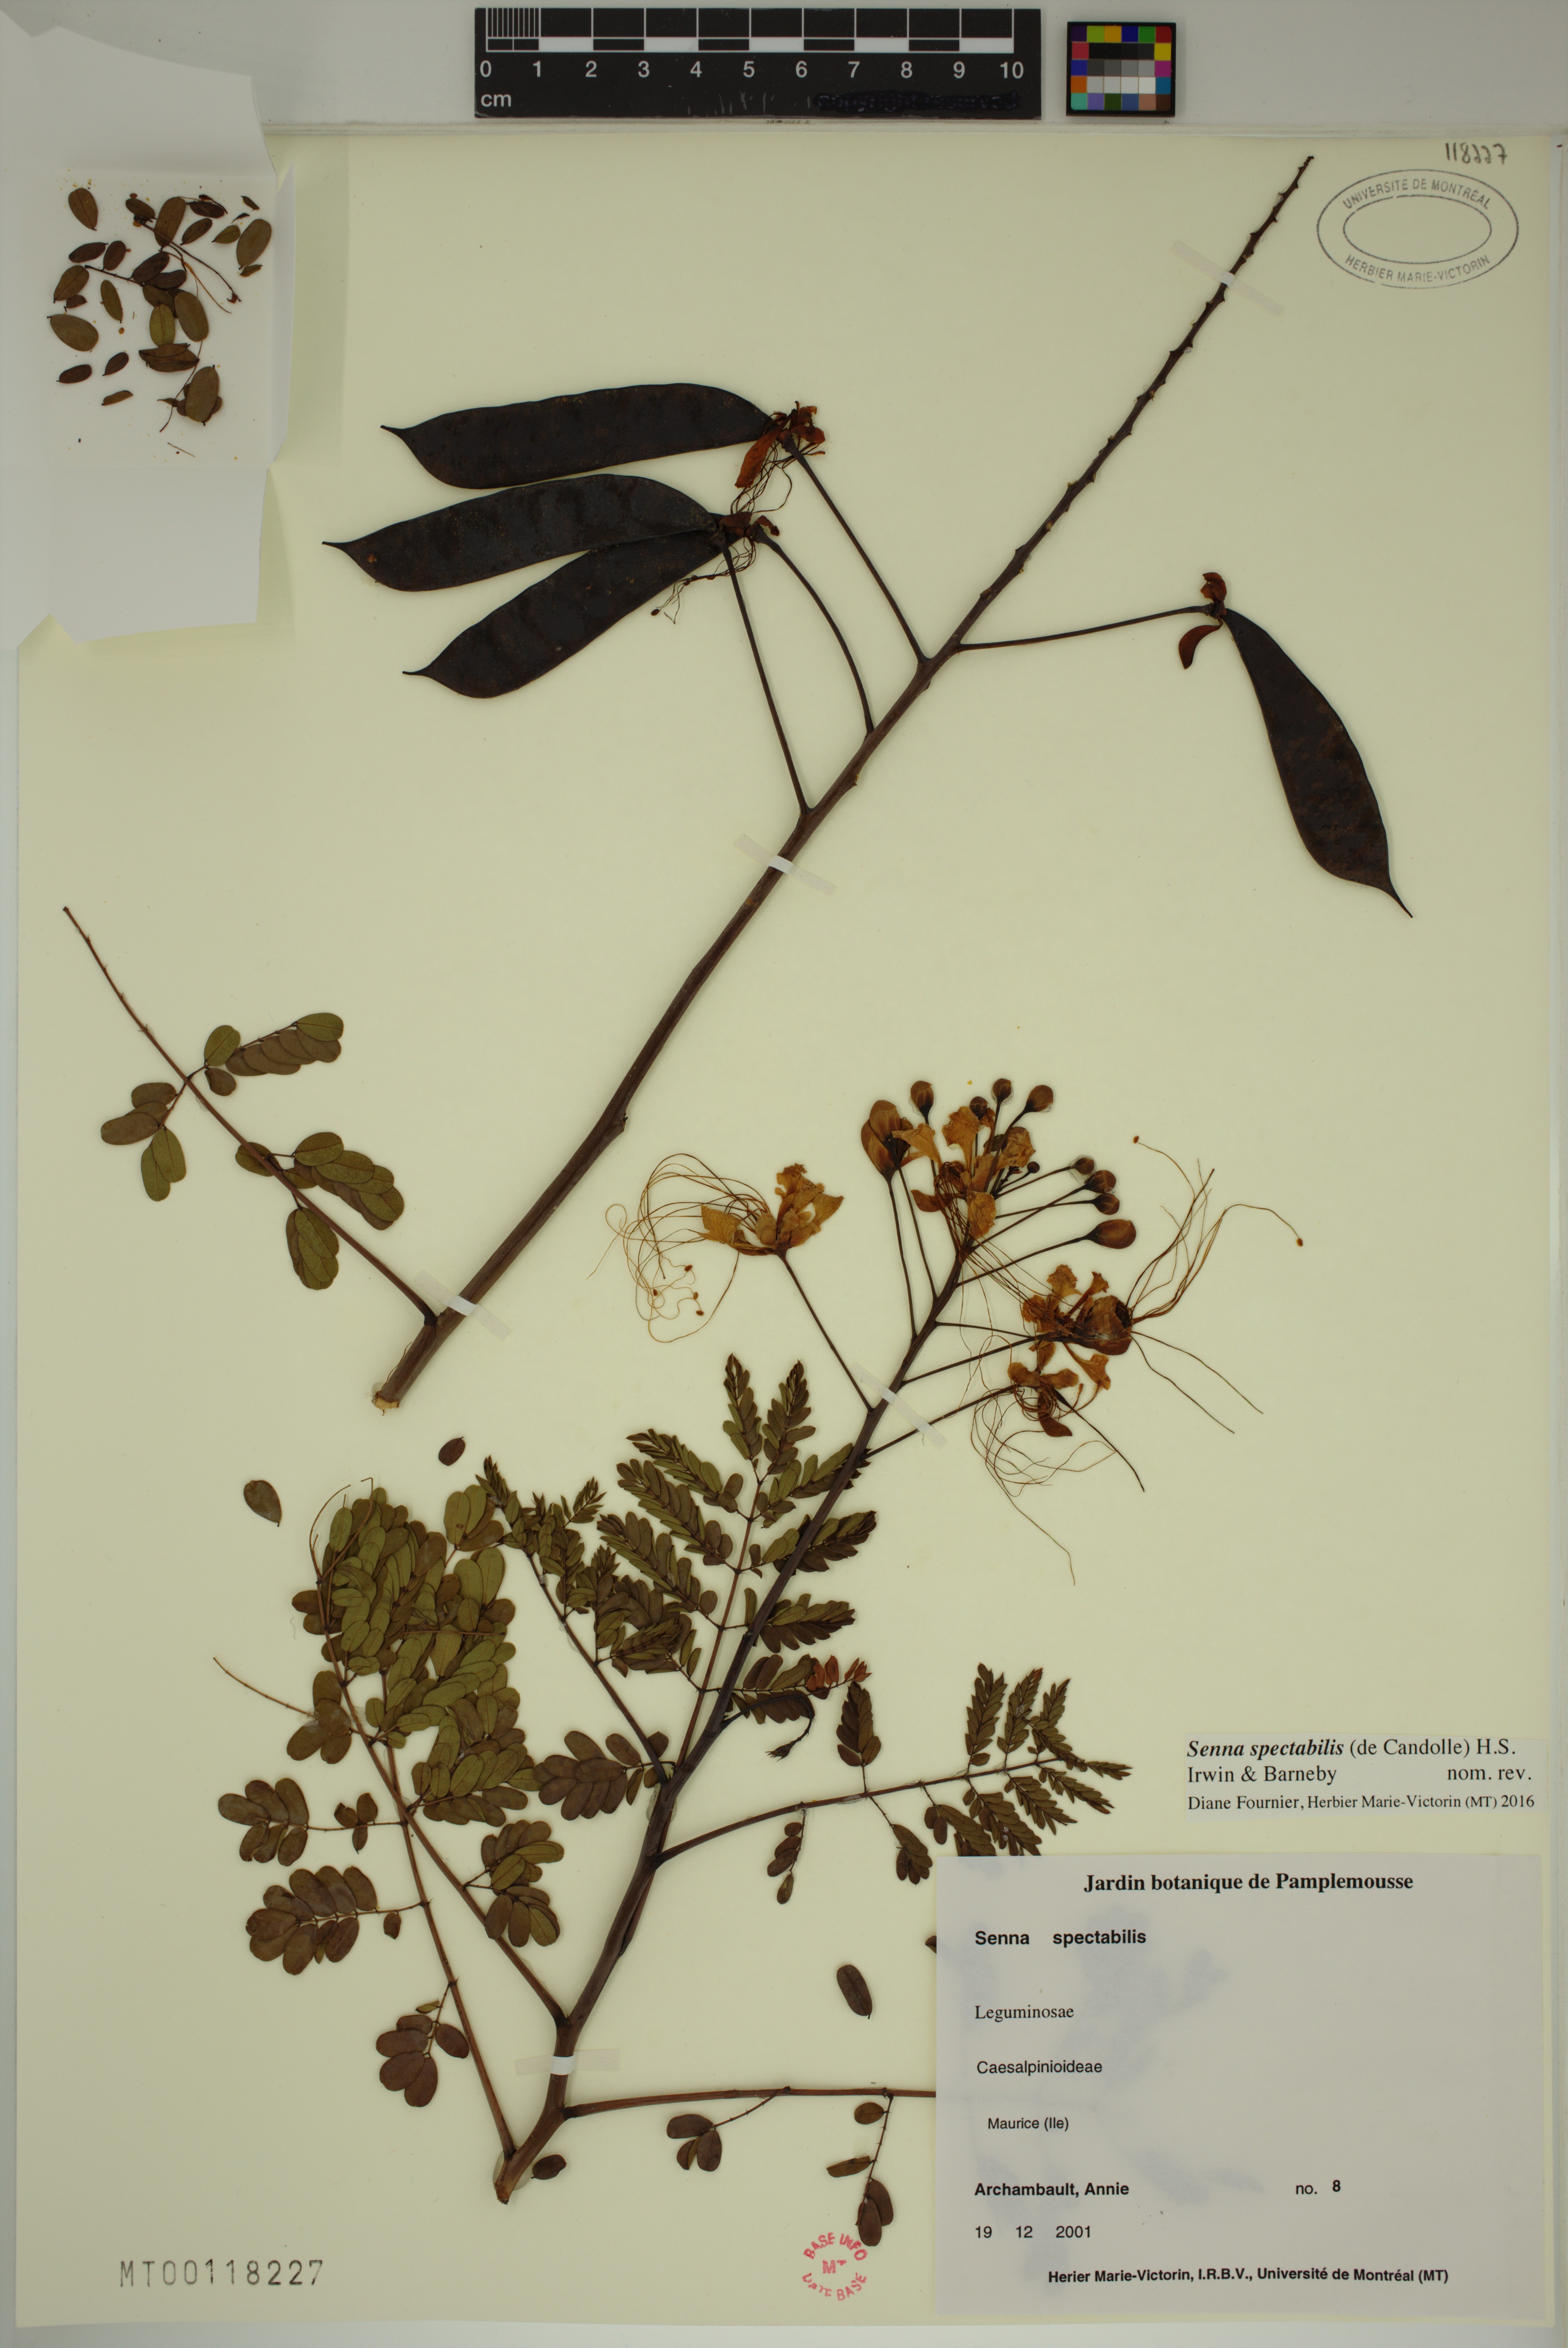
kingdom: Plantae
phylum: Tracheophyta
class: Magnoliopsida
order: Fabales
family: Fabaceae
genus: Senna
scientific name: Senna spectabilis
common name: Casia amarilla
